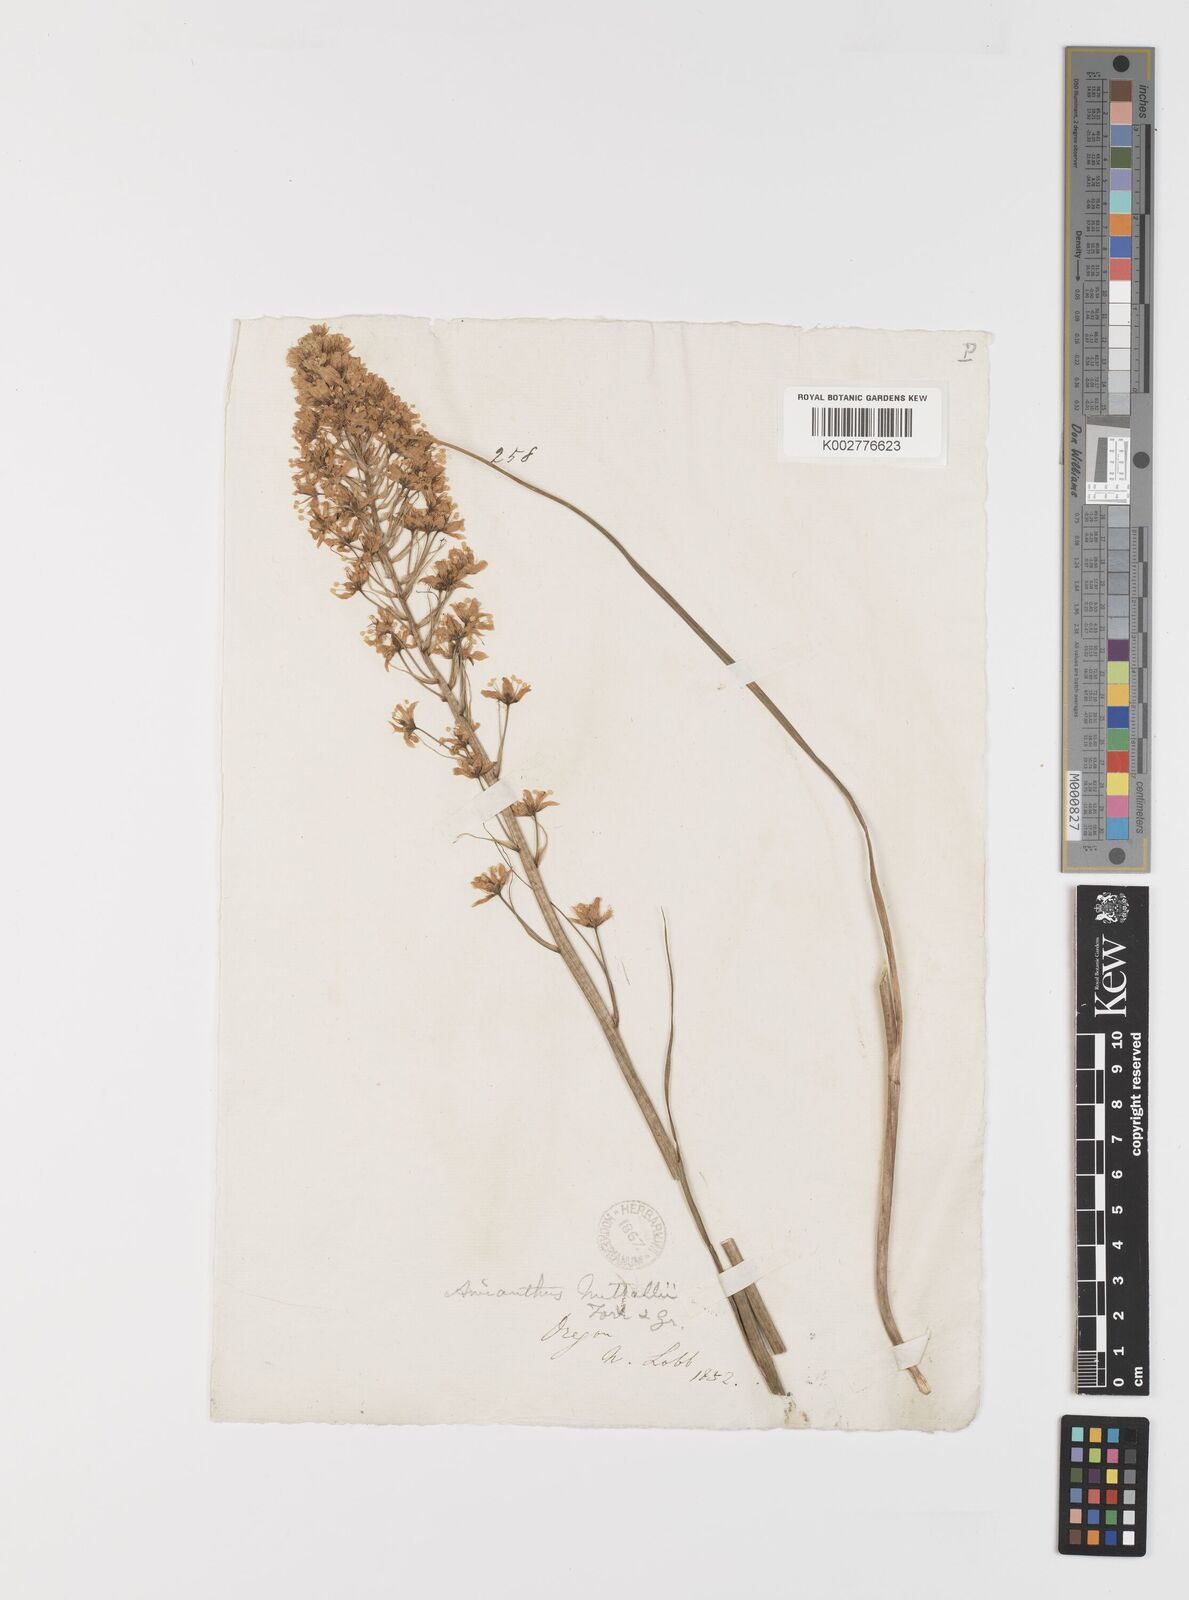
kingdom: Plantae
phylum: Tracheophyta
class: Liliopsida
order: Liliales
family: Melanthiaceae
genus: Toxicoscordion
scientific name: Toxicoscordion venenosum
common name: Meadow death camas
